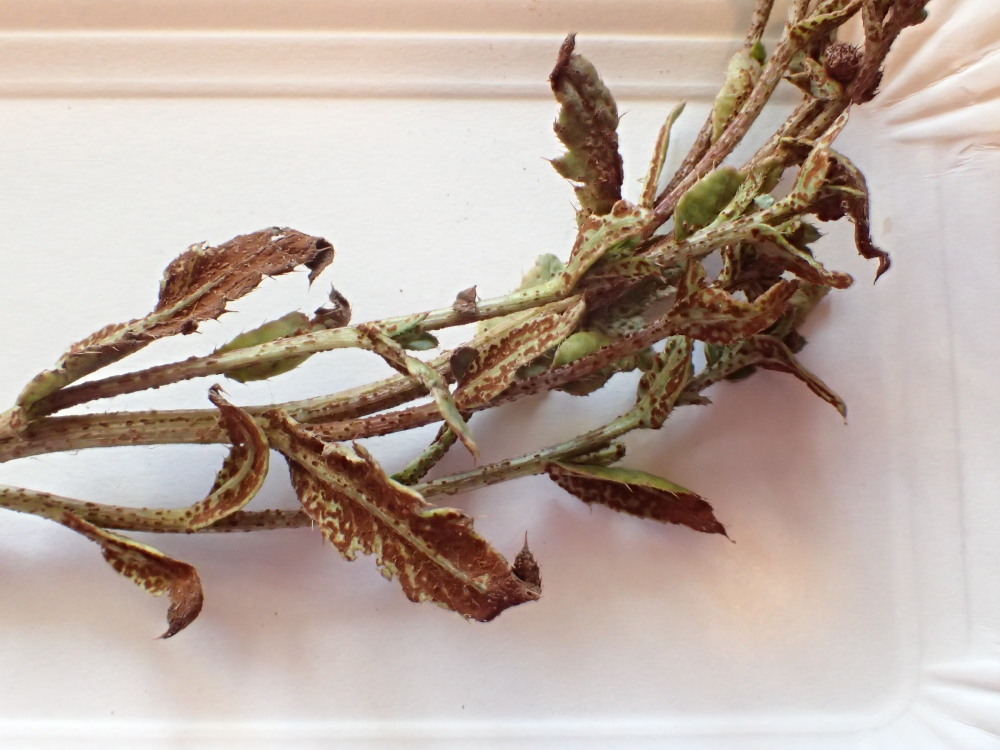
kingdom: Fungi
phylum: Basidiomycota
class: Pucciniomycetes
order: Pucciniales
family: Pucciniaceae
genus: Puccinia
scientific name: Puccinia suaveolens
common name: tidsel-tvecellerust
